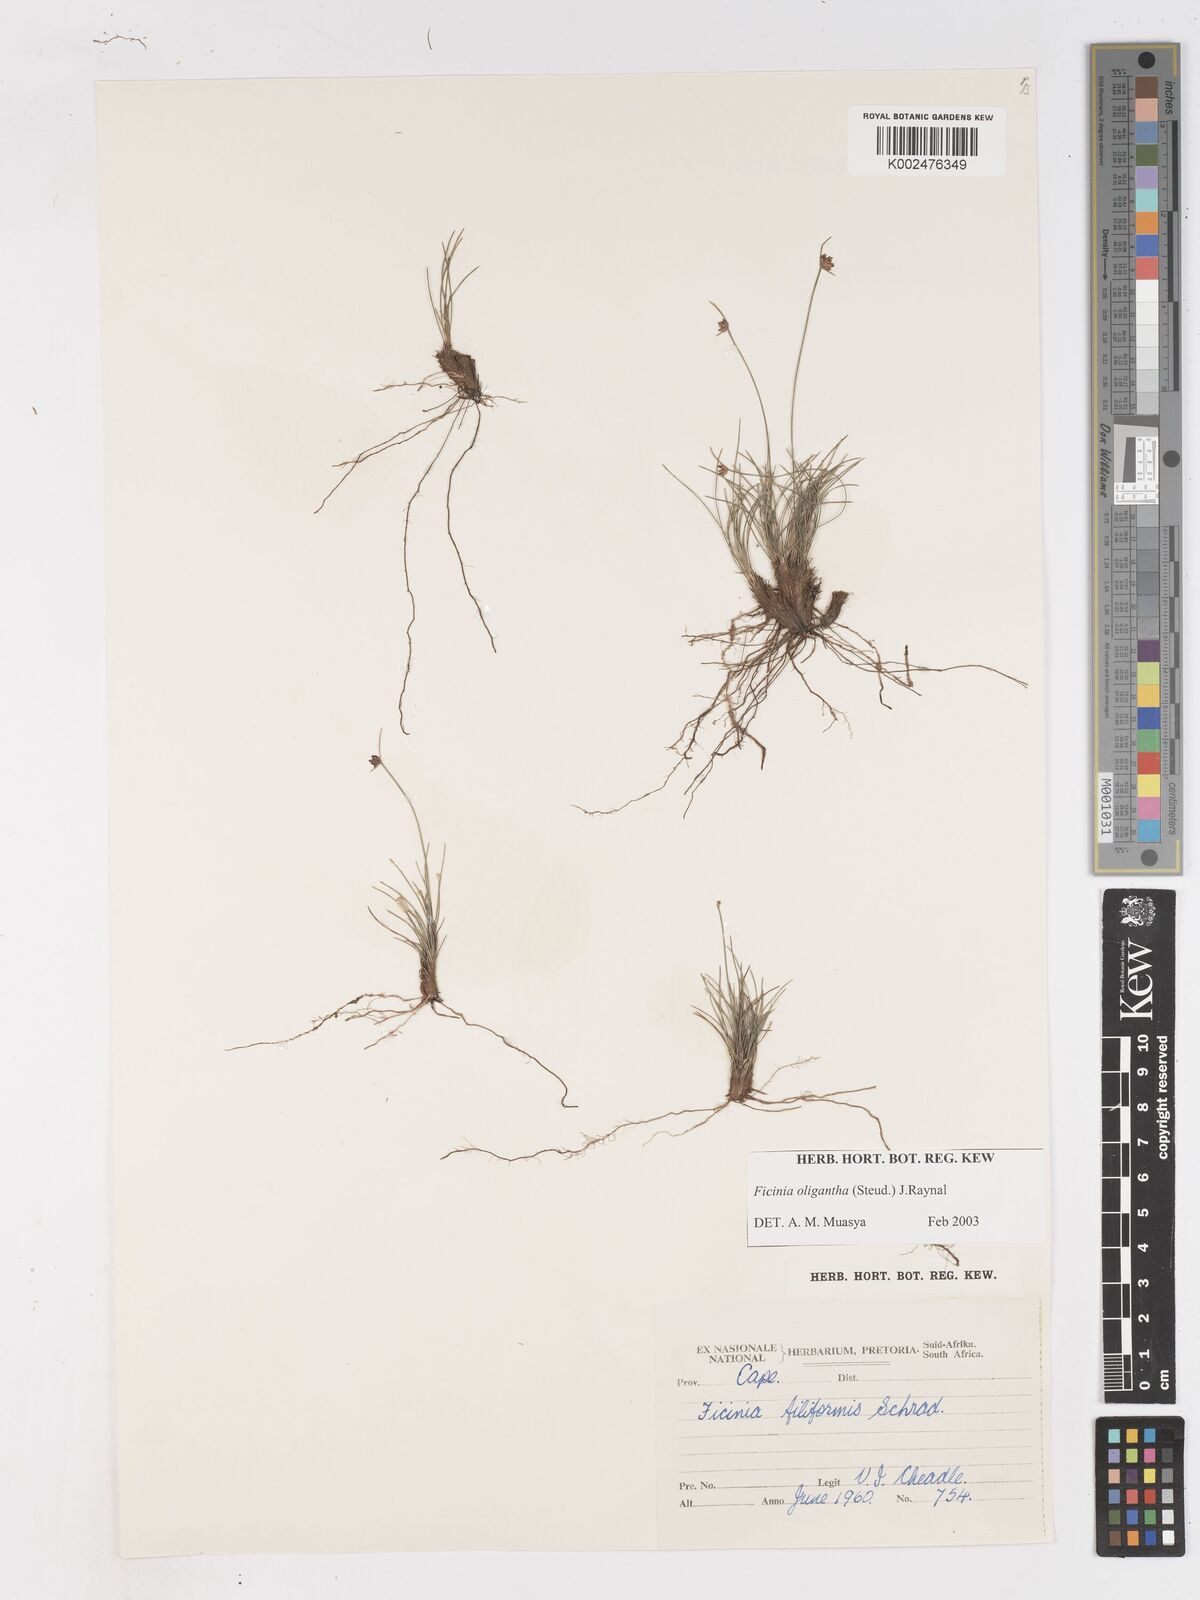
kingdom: Plantae
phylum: Tracheophyta
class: Liliopsida
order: Poales
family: Cyperaceae
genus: Ficinia
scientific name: Ficinia oligantha
